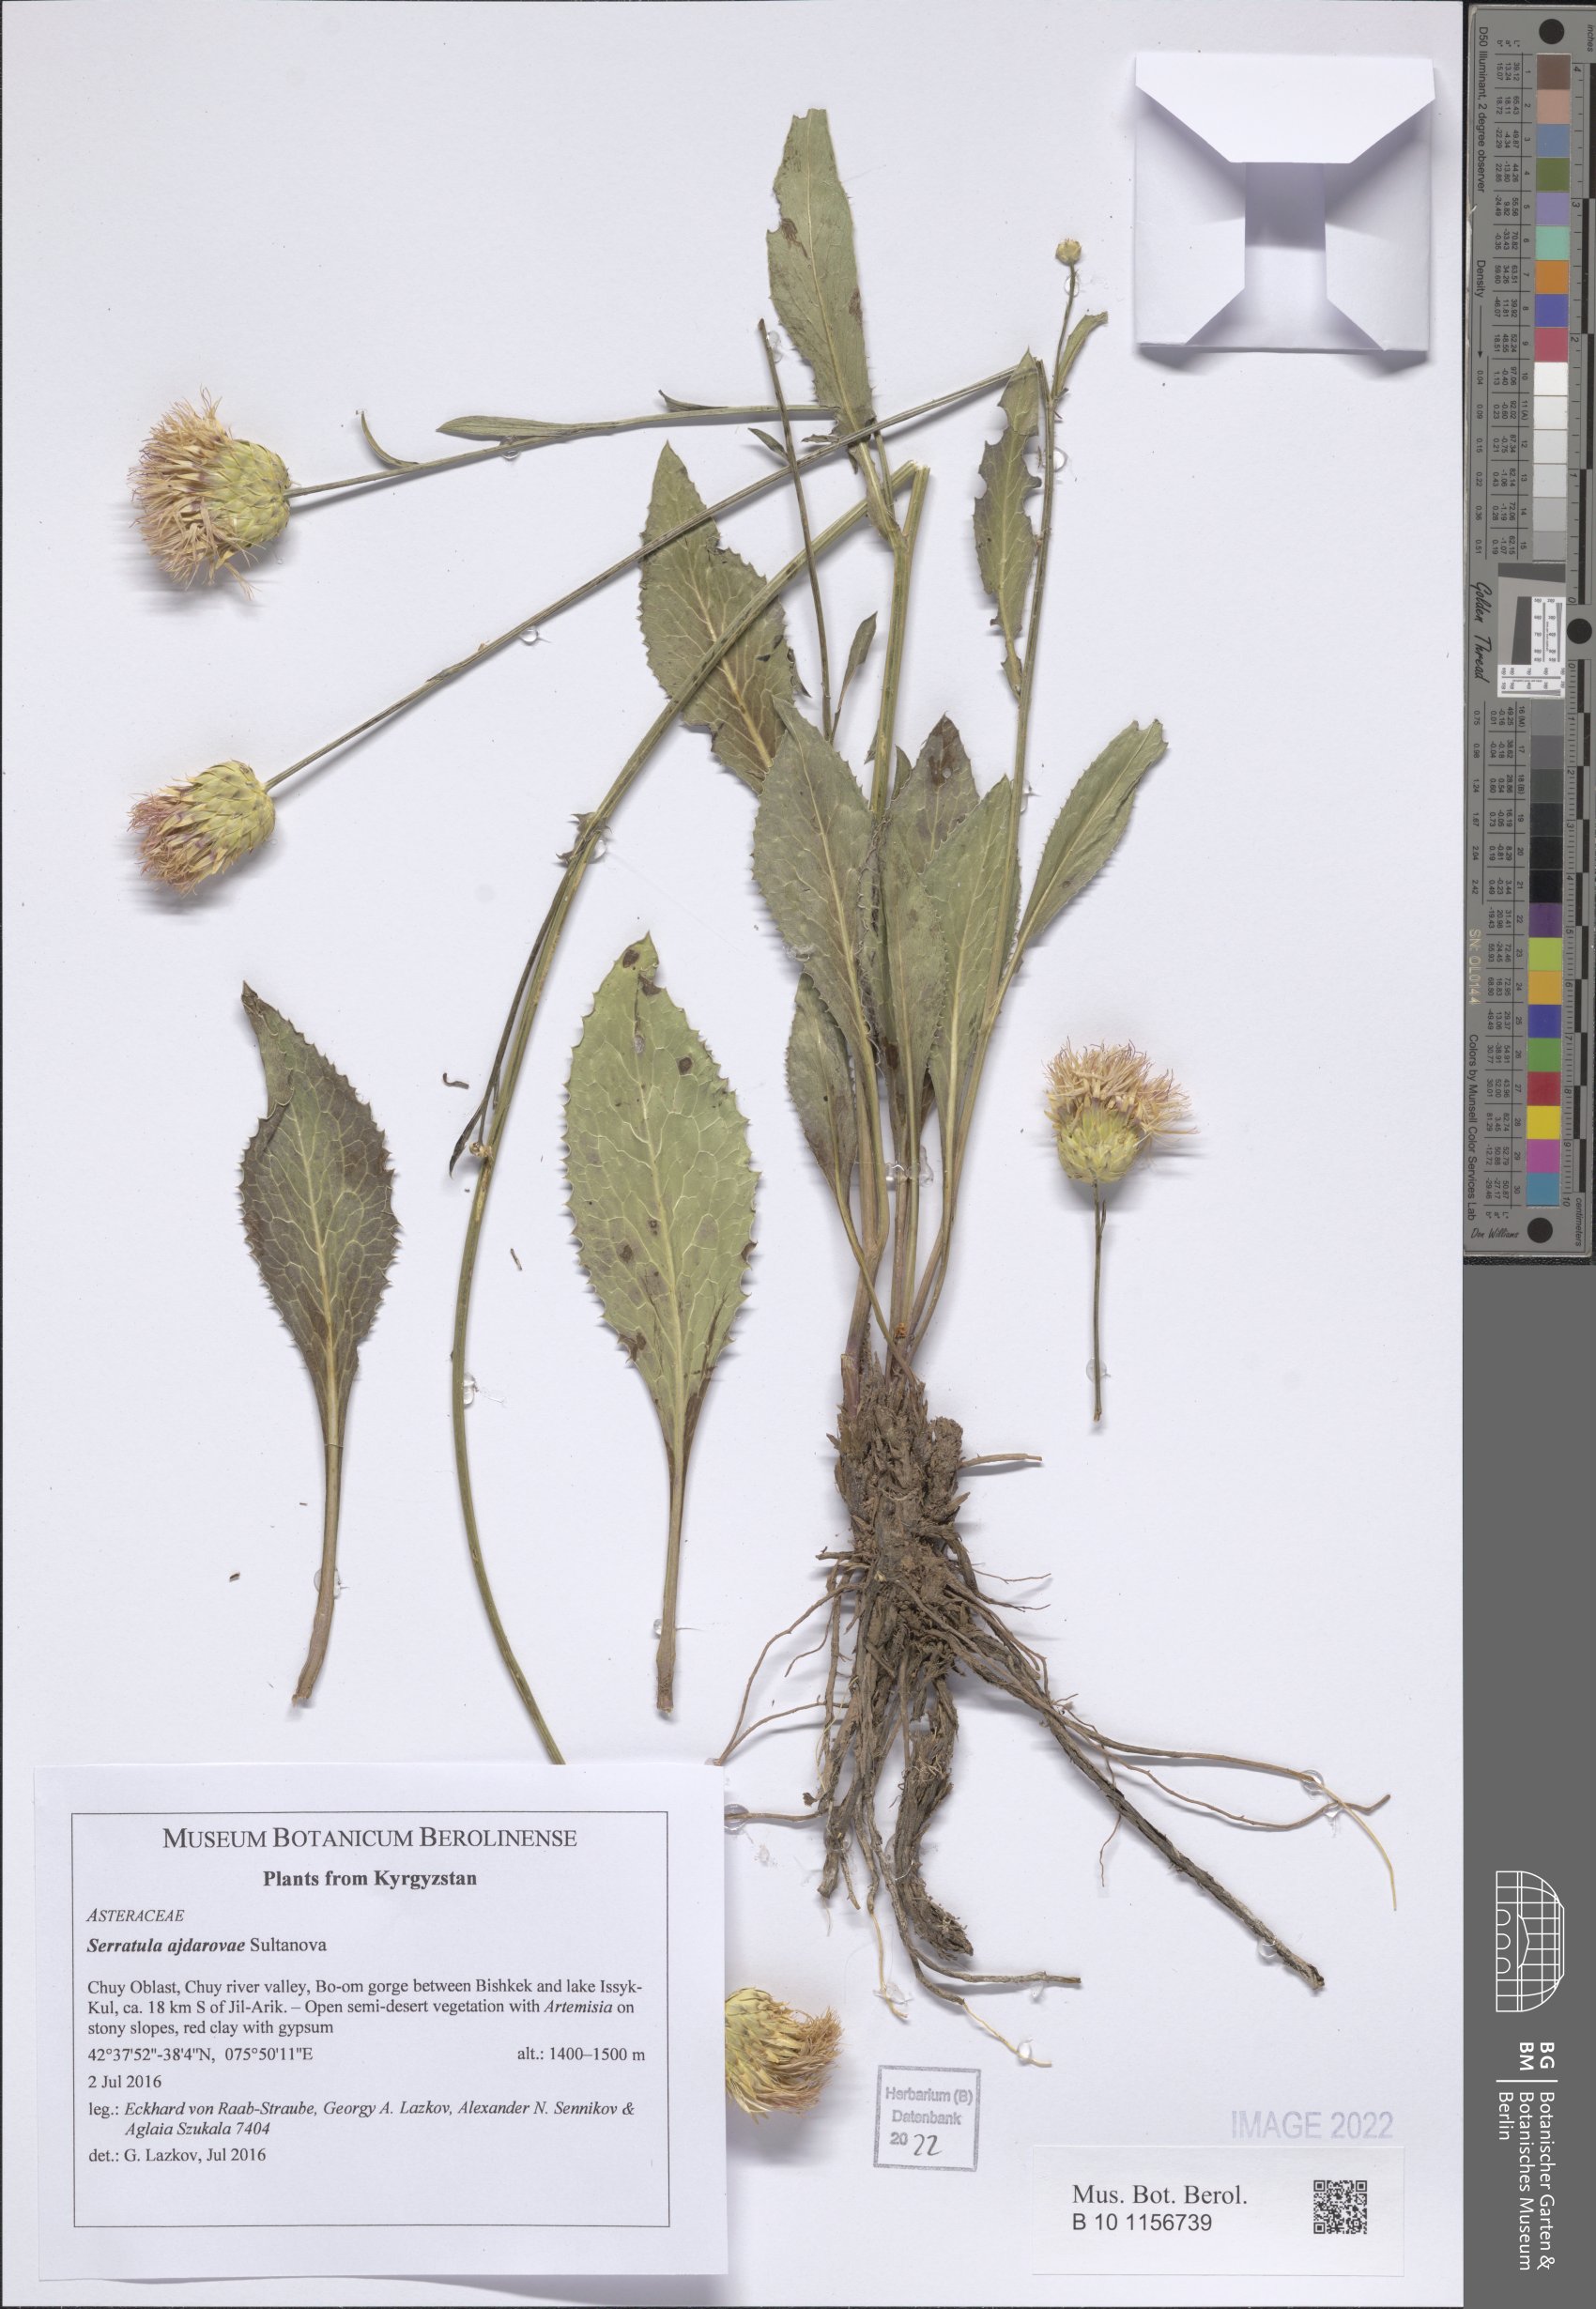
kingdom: Plantae
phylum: Tracheophyta
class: Magnoliopsida
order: Asterales
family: Asteraceae
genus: Klasea
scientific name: Klasea suffruticulosa
